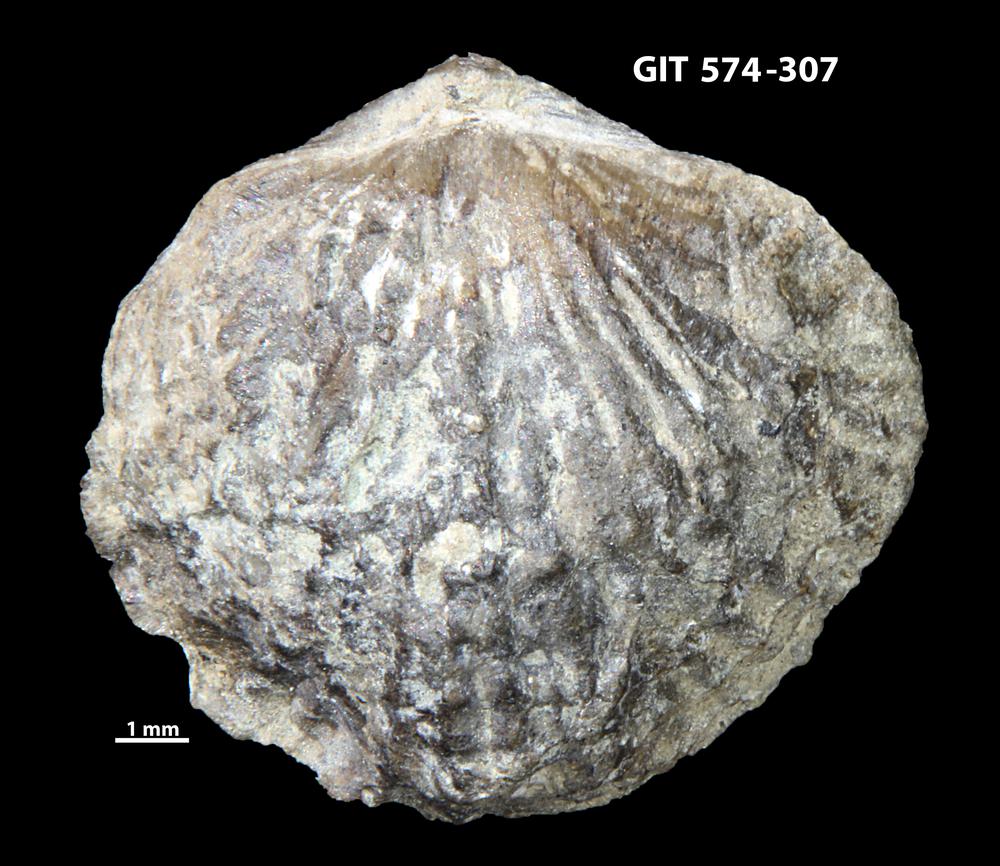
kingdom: Animalia
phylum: Brachiopoda
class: Rhynchonellata
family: Atrypinidae
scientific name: Atrypinidae
